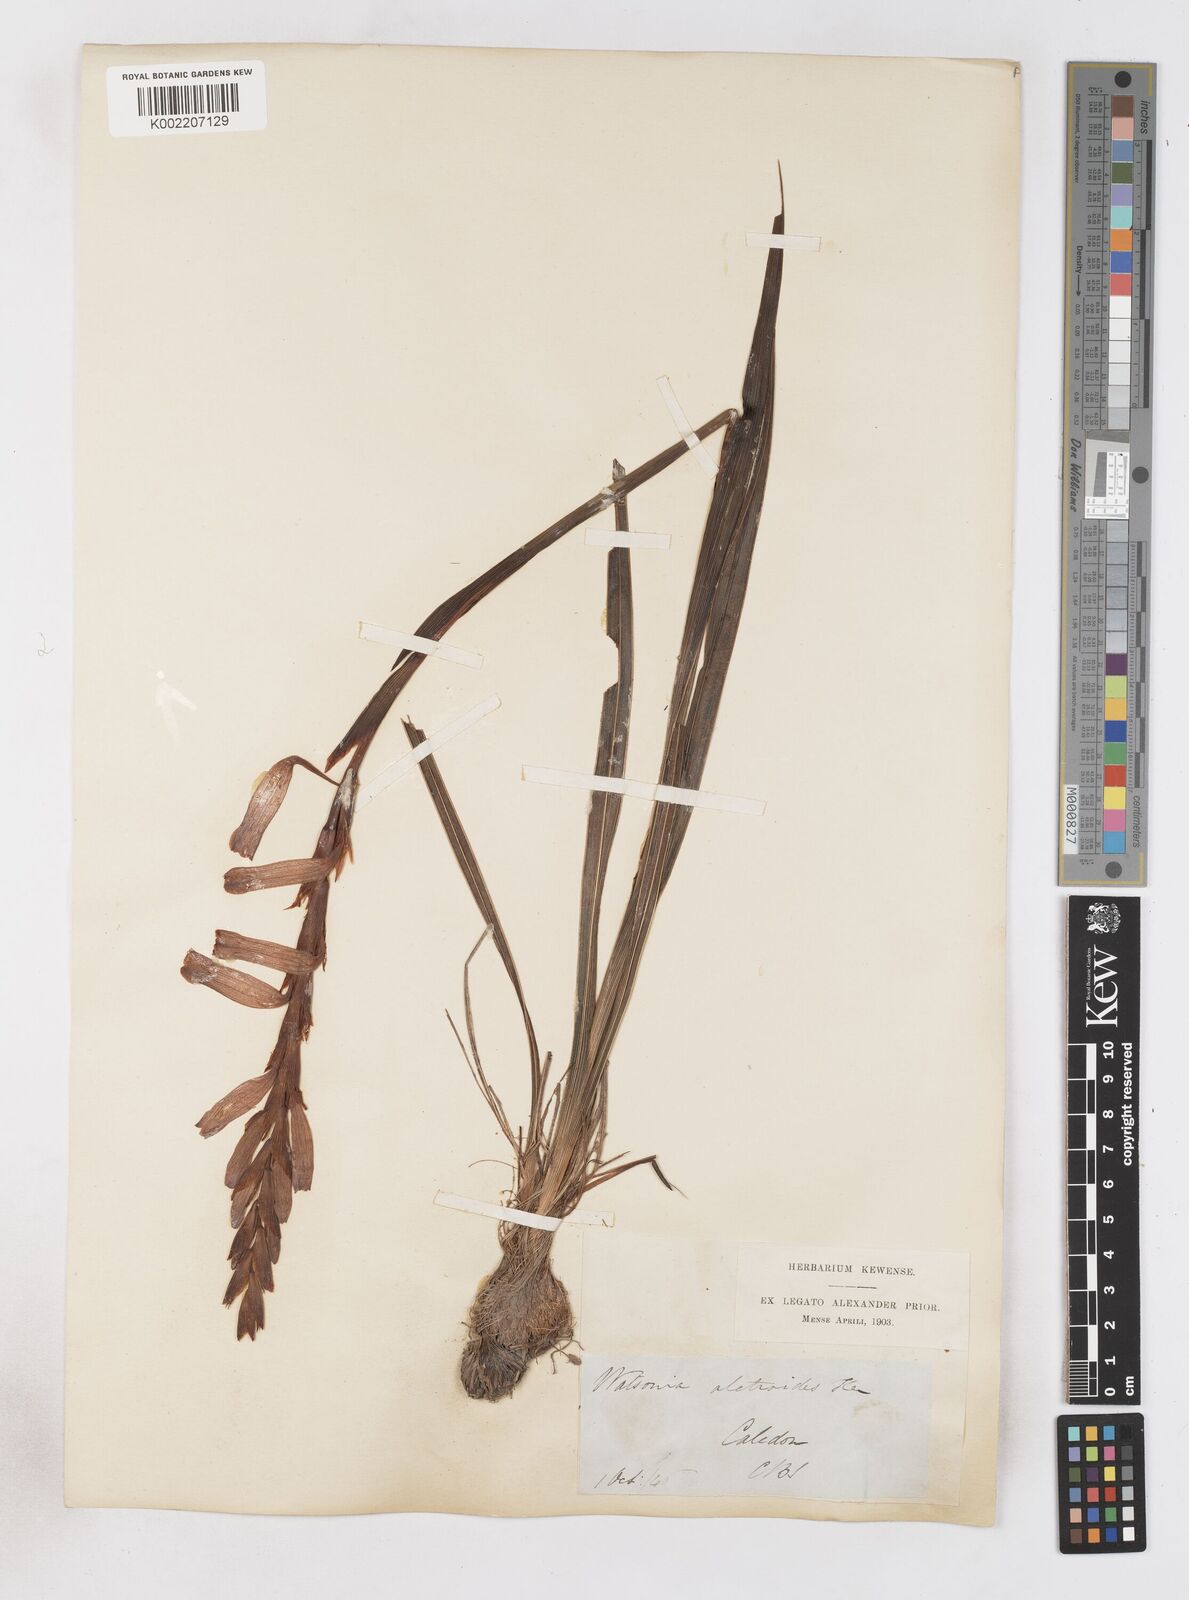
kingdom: Plantae
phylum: Tracheophyta
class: Liliopsida
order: Asparagales
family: Iridaceae
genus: Watsonia
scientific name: Watsonia aletroides
